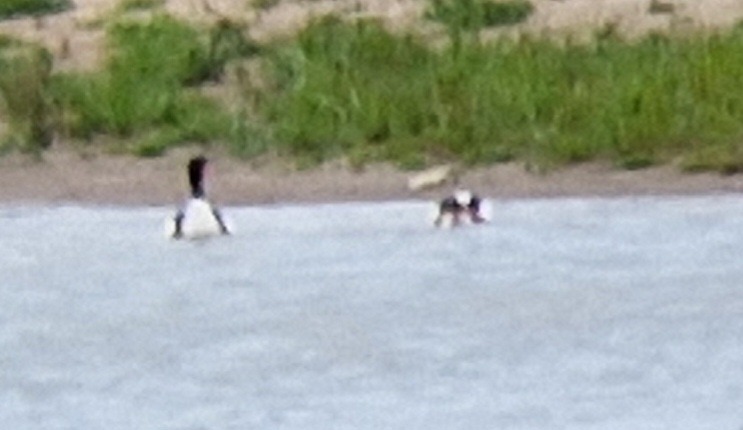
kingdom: Animalia
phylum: Chordata
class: Aves
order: Anseriformes
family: Anatidae
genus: Tadorna
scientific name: Tadorna tadorna
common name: Gravand
